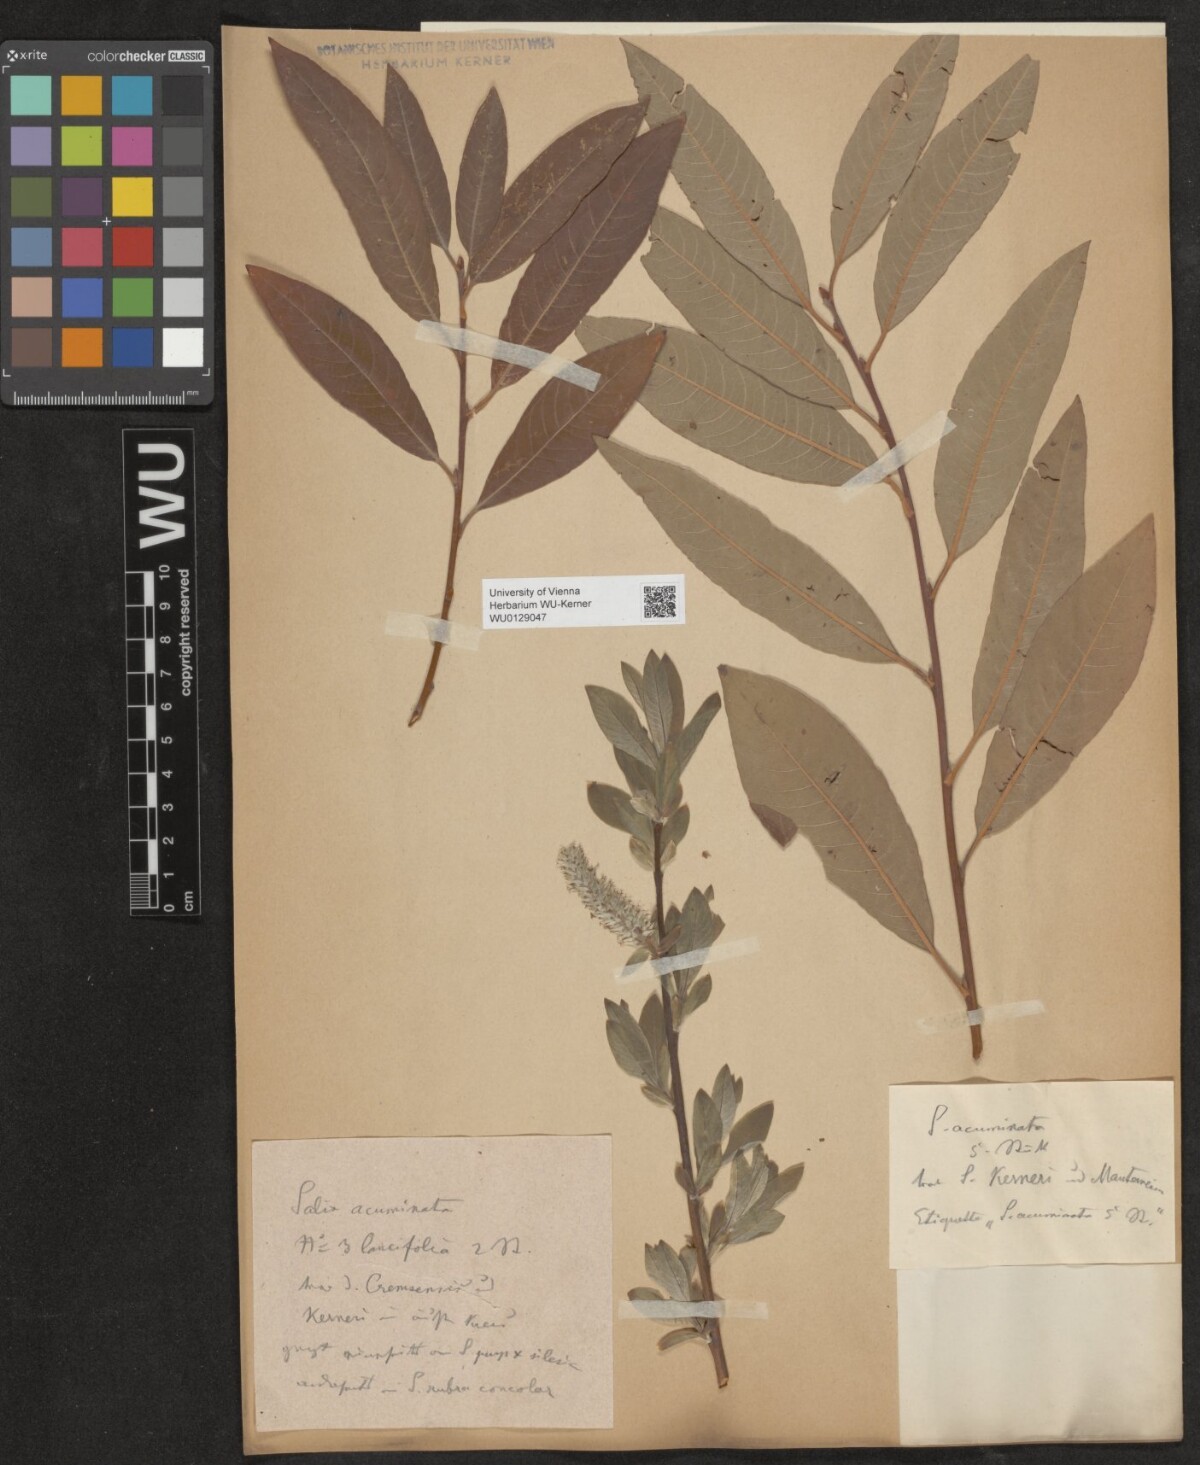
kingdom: Plantae
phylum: Tracheophyta
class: Magnoliopsida
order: Malpighiales
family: Salicaceae
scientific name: Salicaceae
